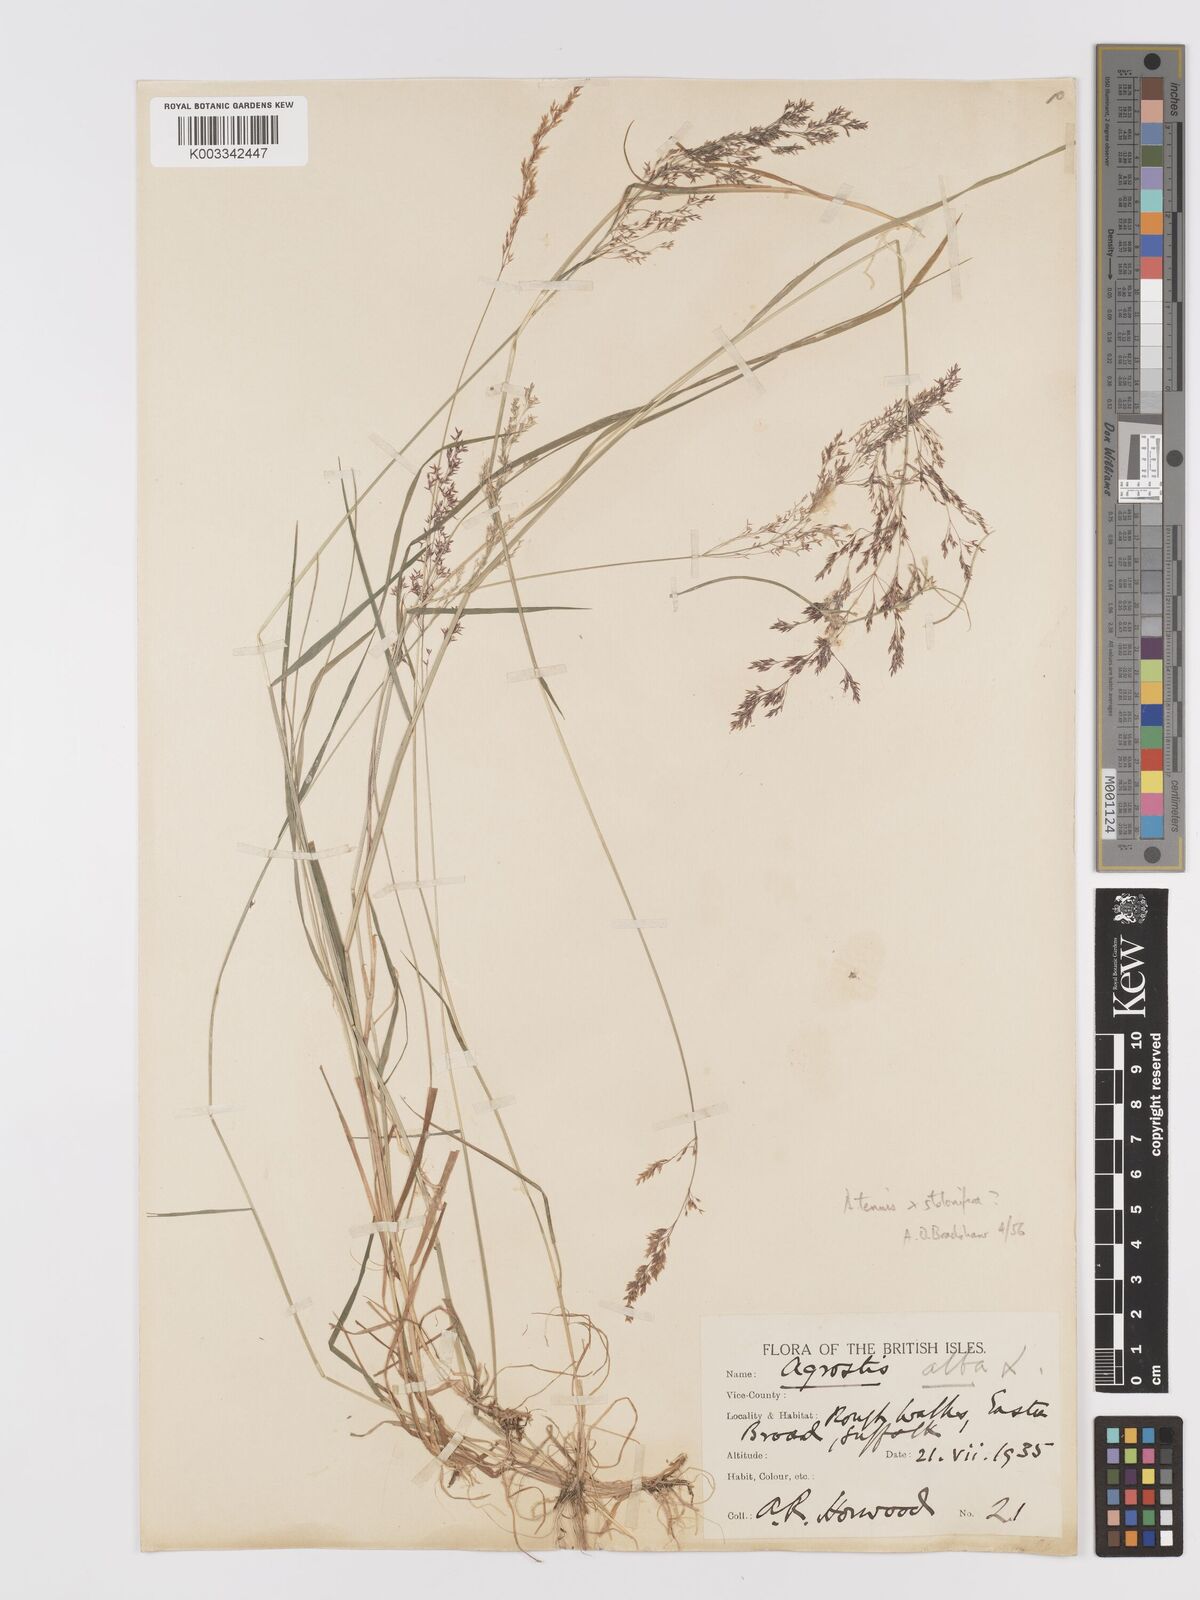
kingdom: Plantae
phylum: Tracheophyta
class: Liliopsida
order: Poales
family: Poaceae
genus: Agrostis
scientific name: Agrostis capillaris
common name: Colonial bentgrass
